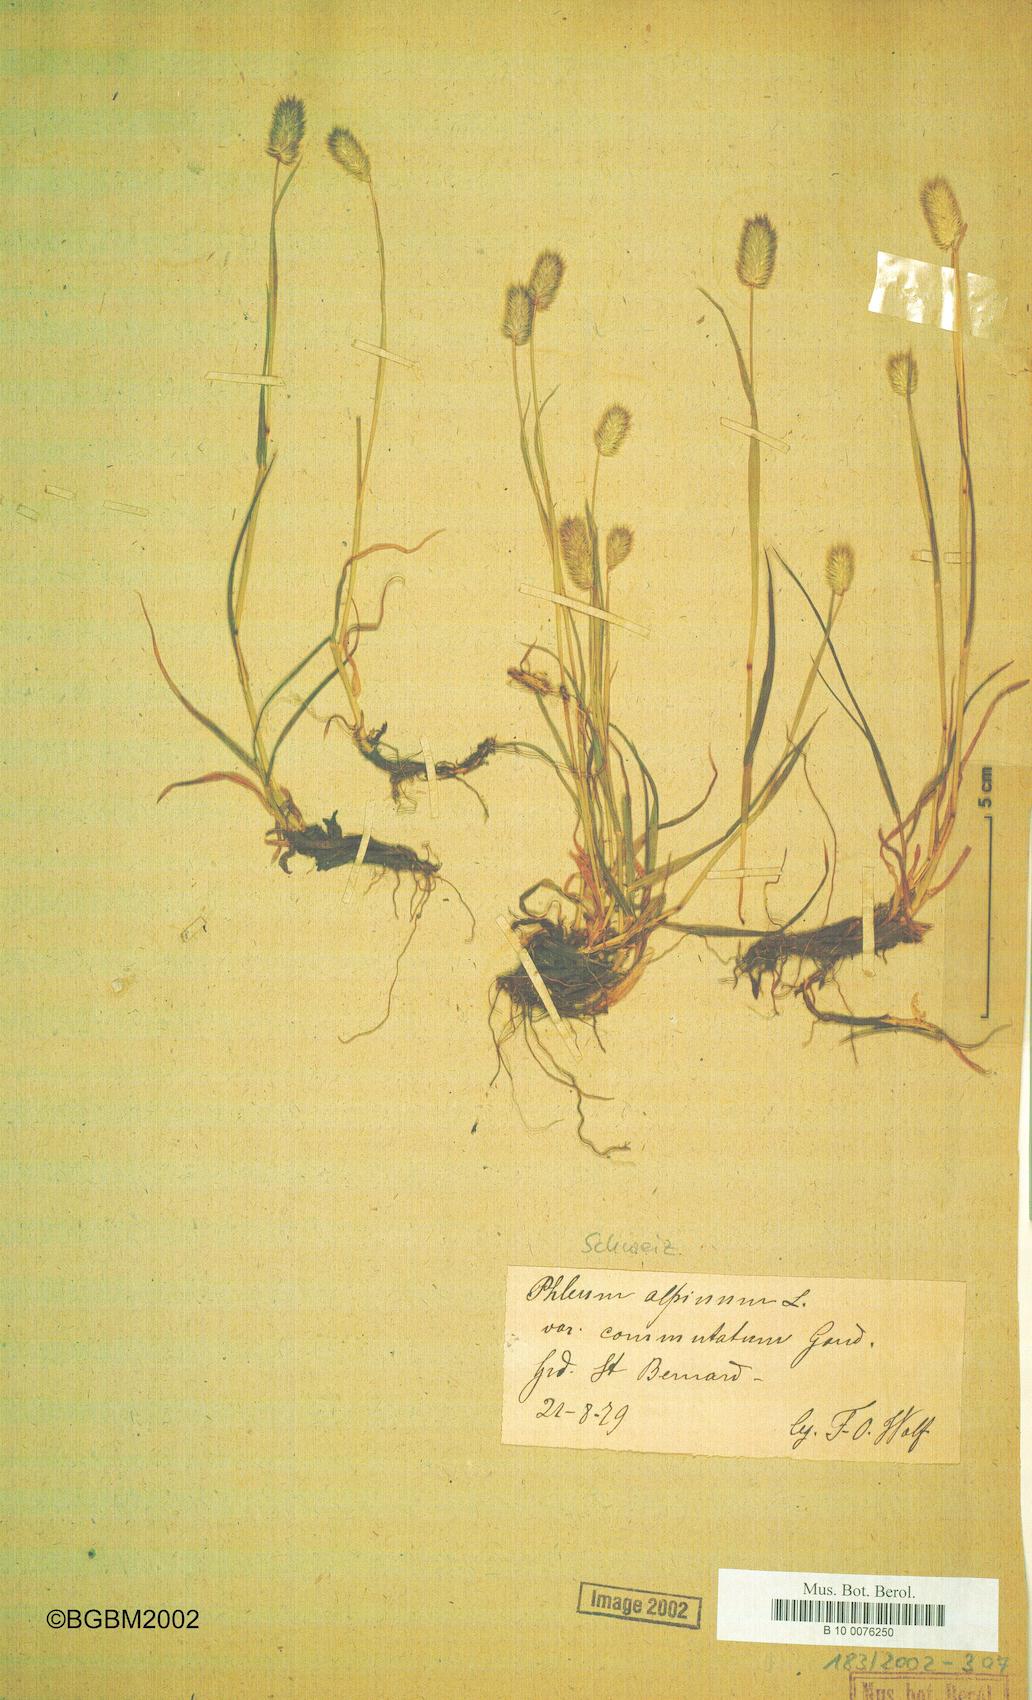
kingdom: Plantae
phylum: Tracheophyta
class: Liliopsida
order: Poales
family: Poaceae
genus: Phleum
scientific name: Phleum alpinum
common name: Alpine cat's-tail
